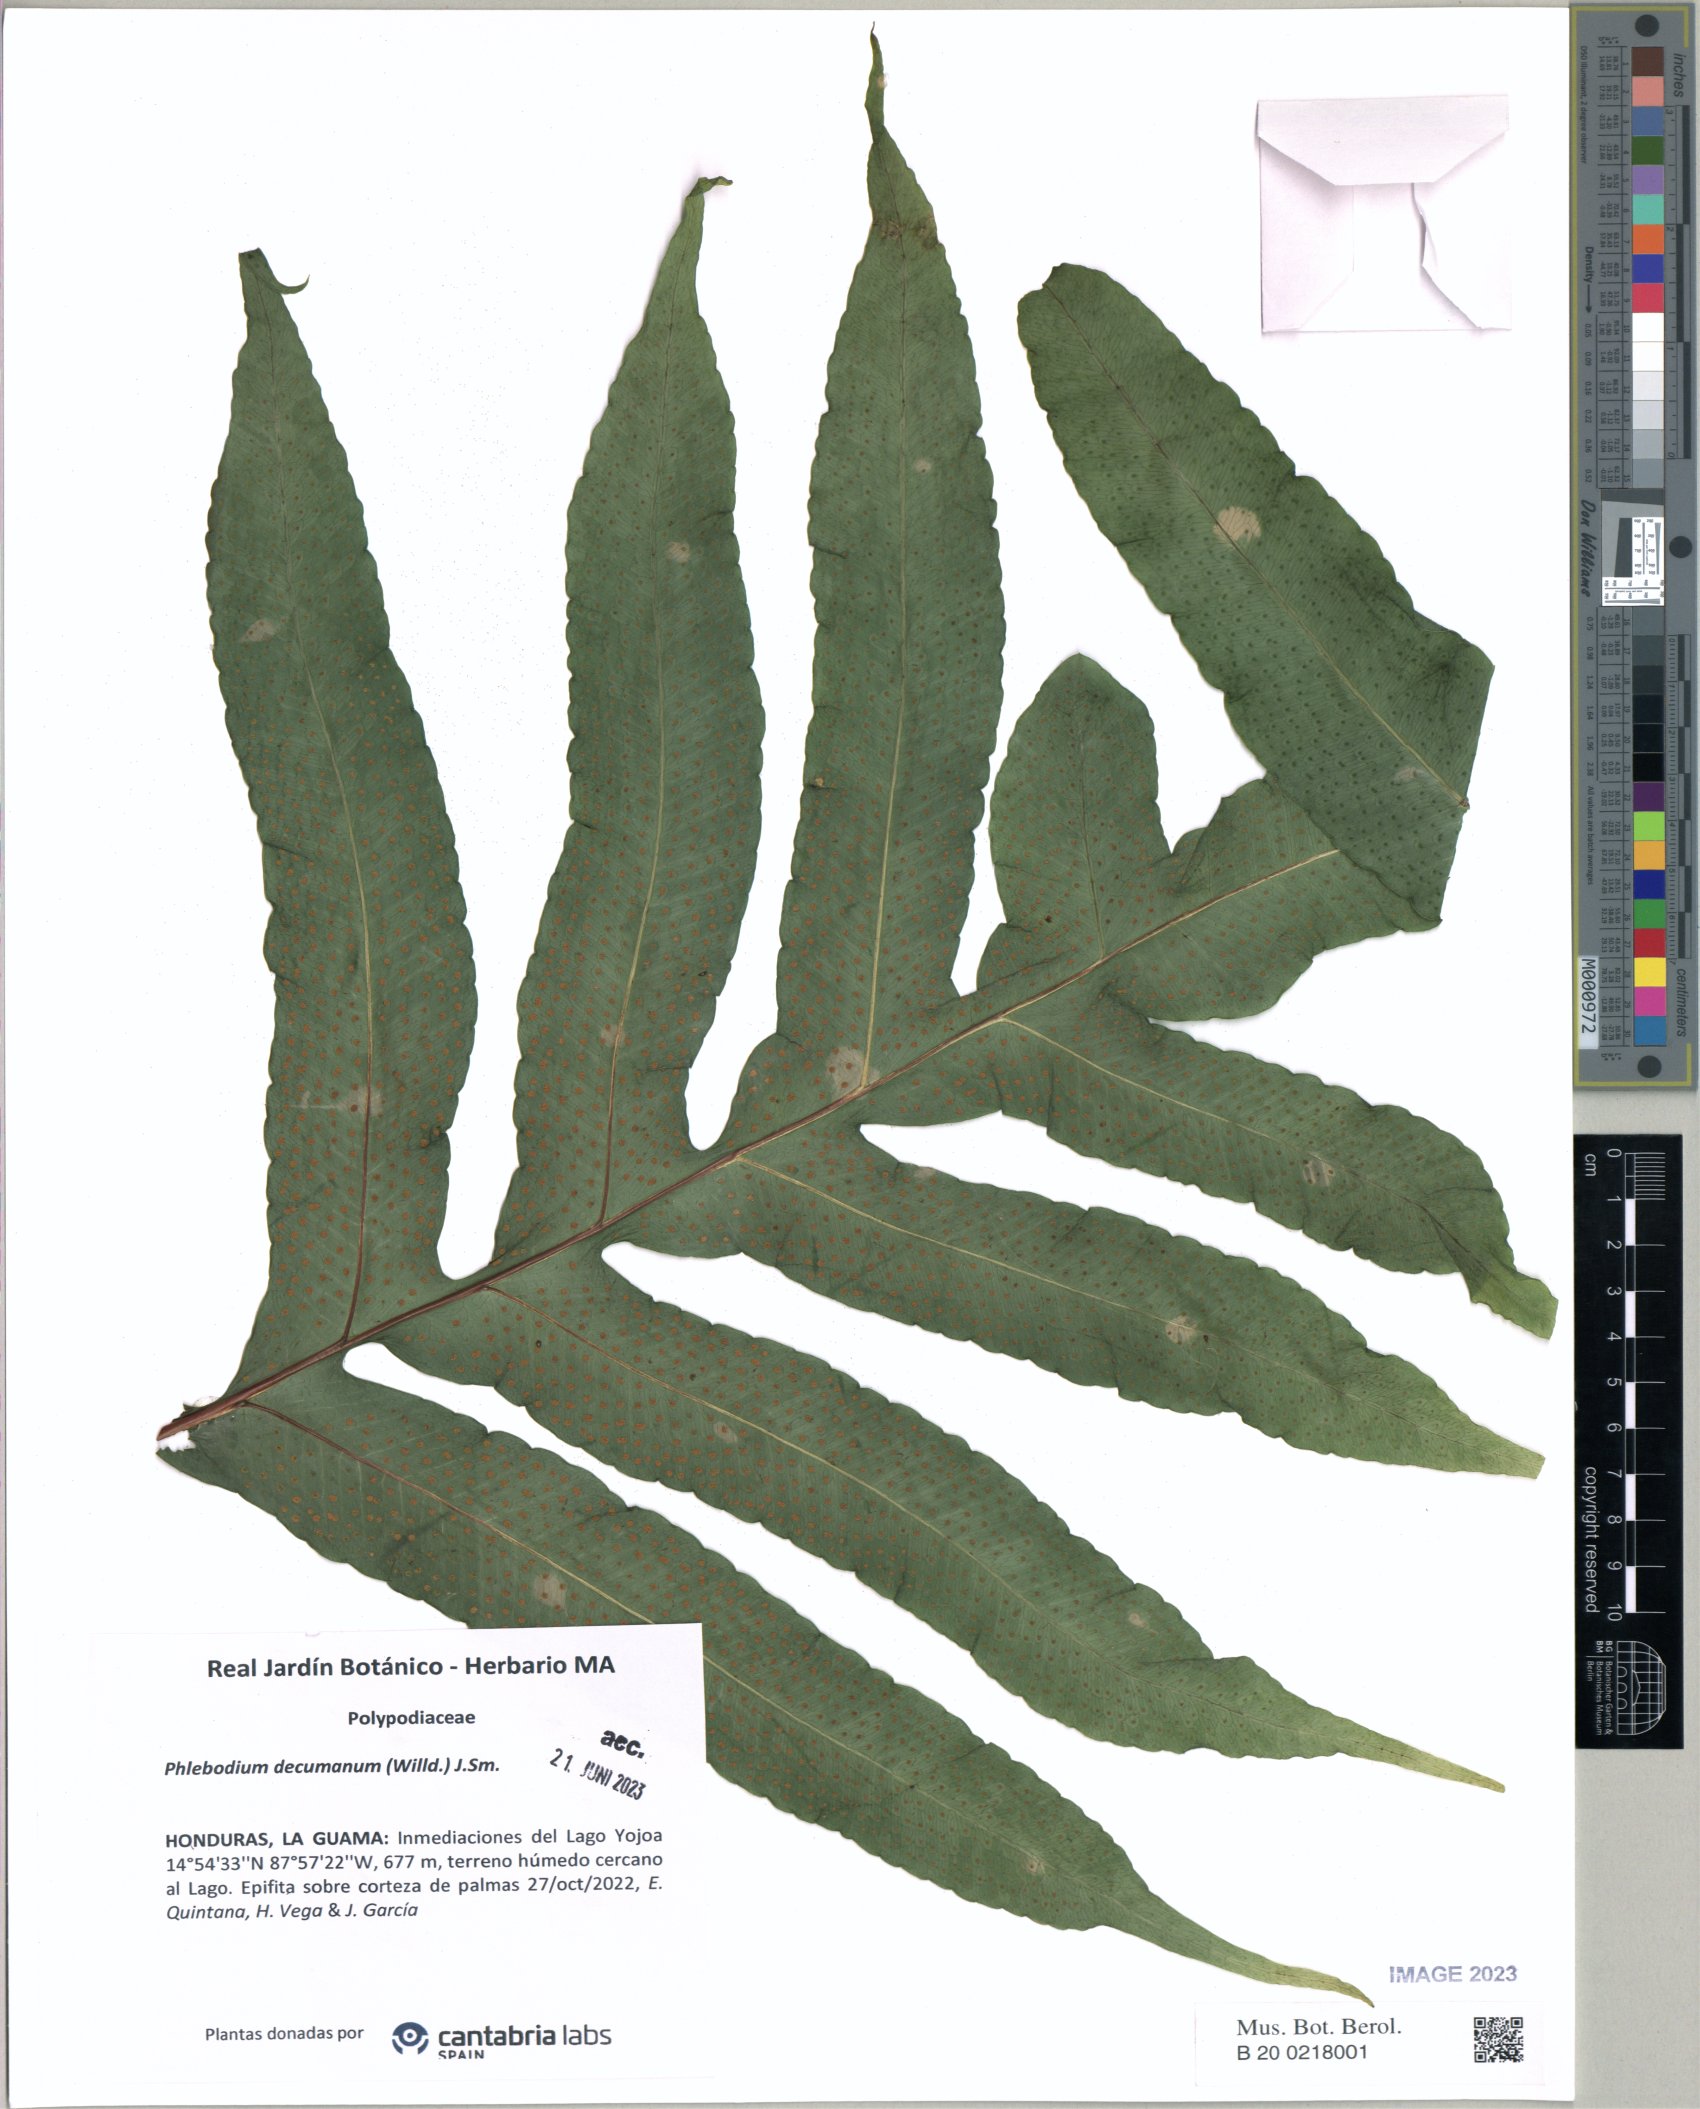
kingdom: Plantae
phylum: Tracheophyta
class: Polypodiopsida
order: Polypodiales
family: Polypodiaceae
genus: Phlebodium
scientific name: Phlebodium decumanum
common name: Golden polypod
